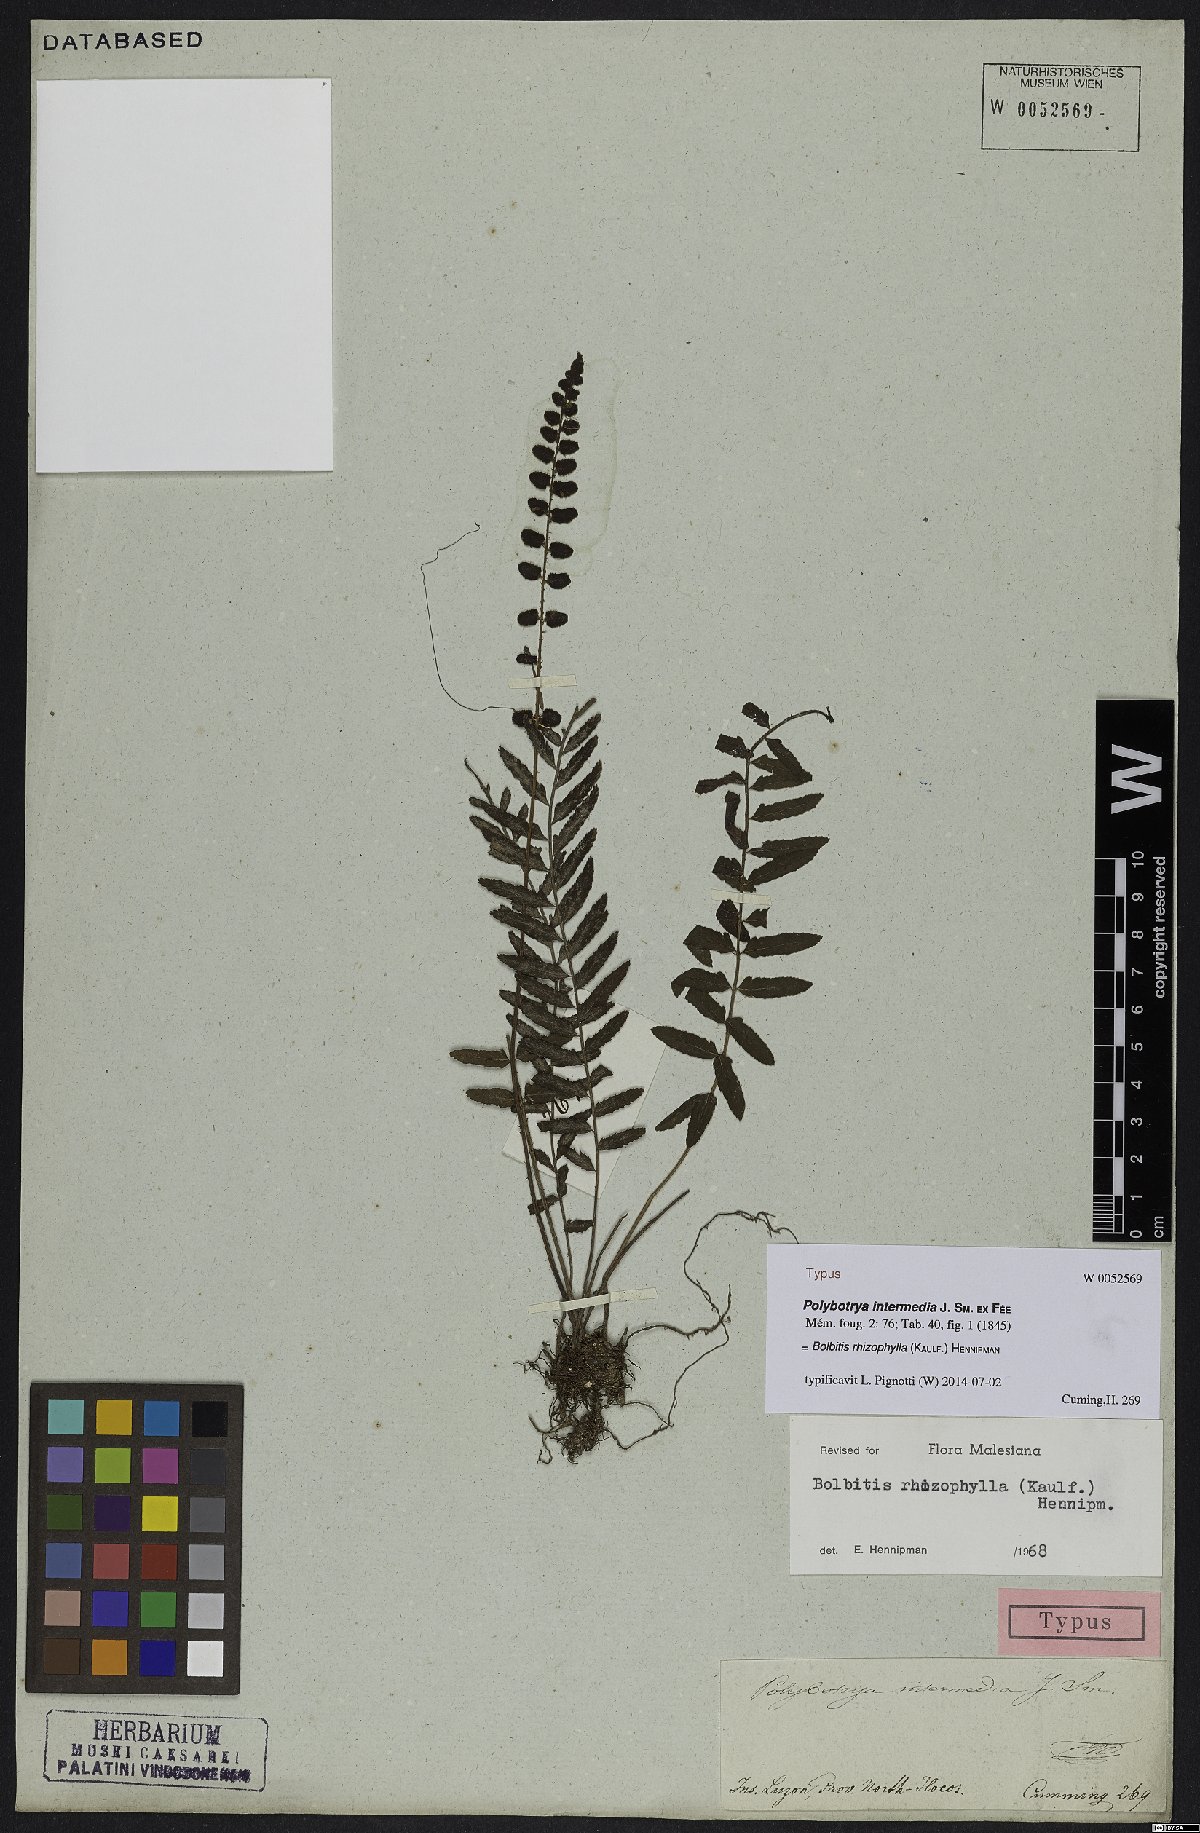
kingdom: Plantae
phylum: Tracheophyta
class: Polypodiopsida
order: Polypodiales
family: Dryopteridaceae
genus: Bolbitis
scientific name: Bolbitis rhizophylla
